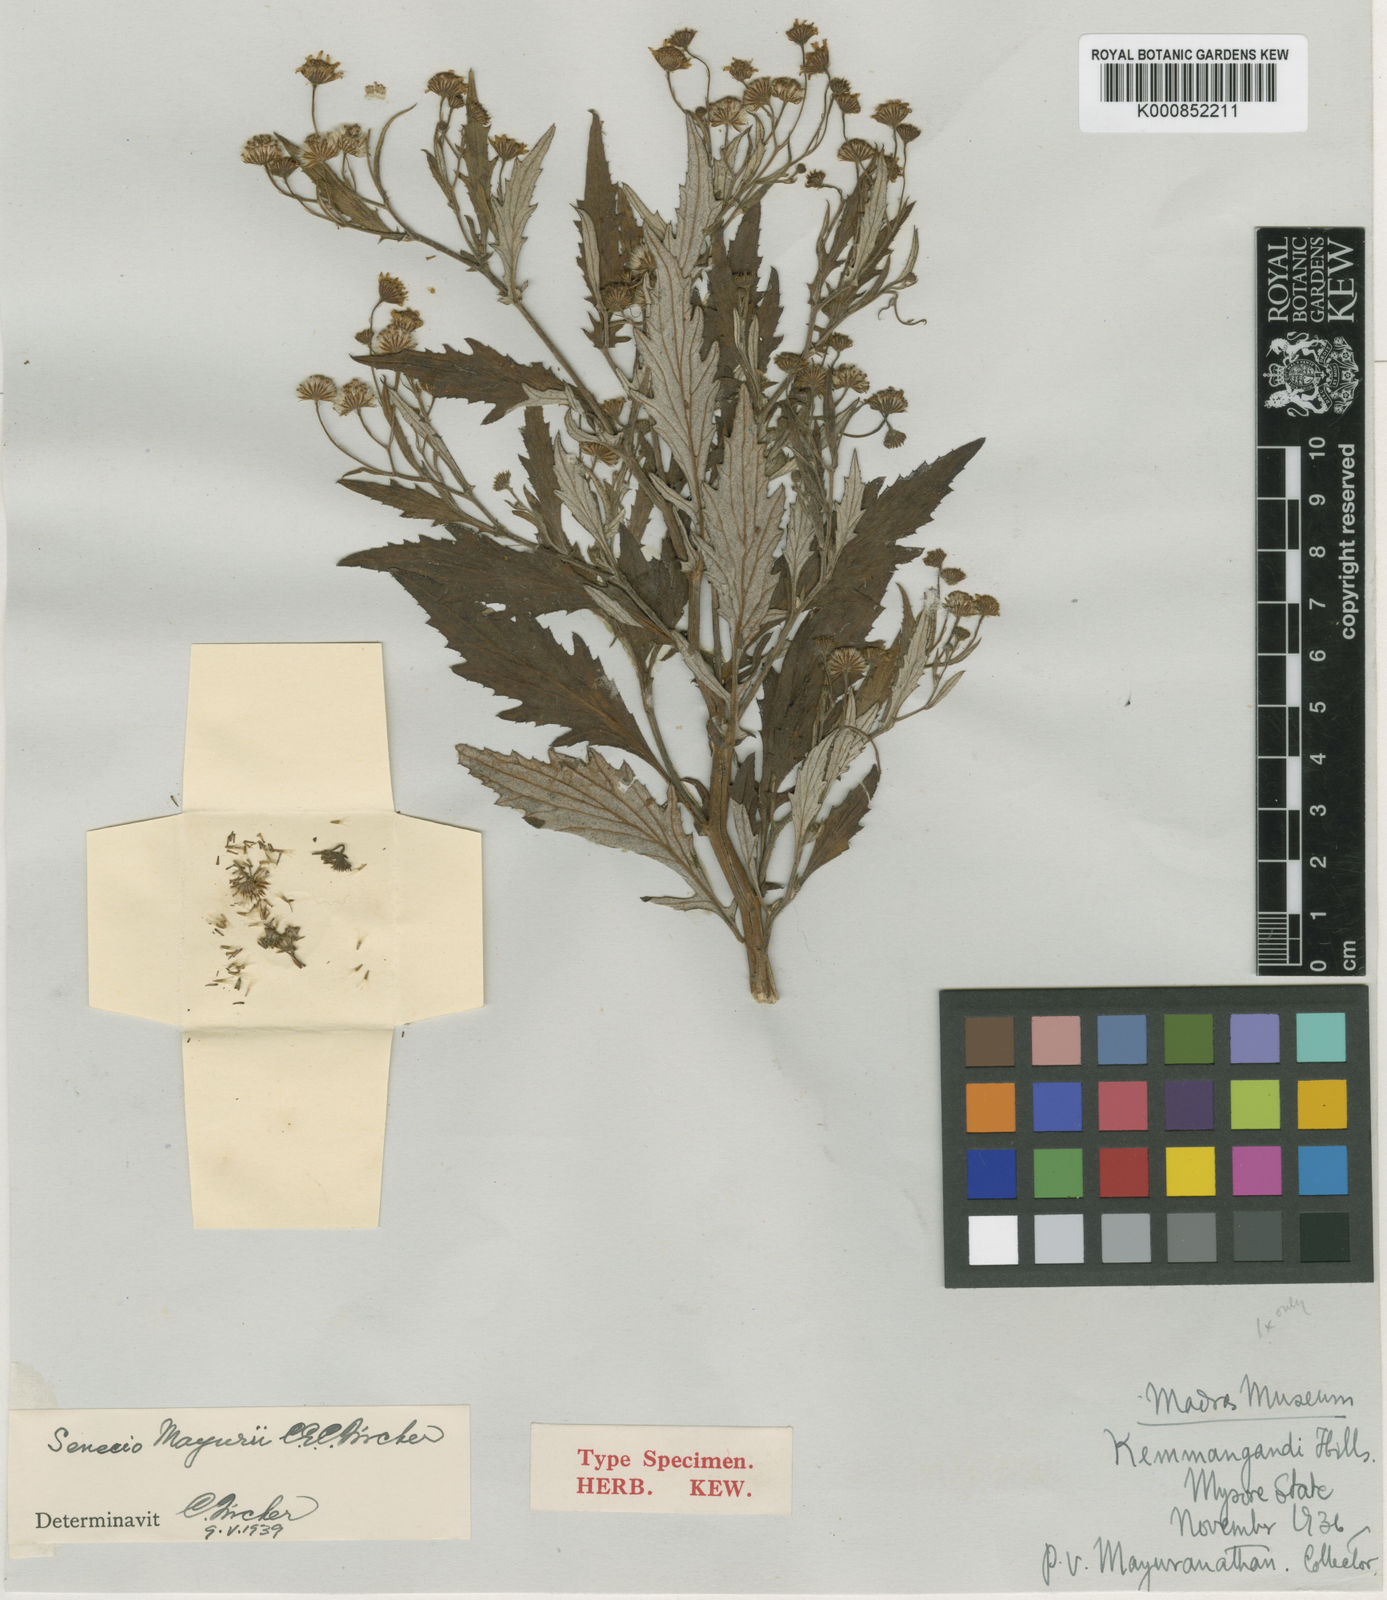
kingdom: Plantae
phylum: Tracheophyta
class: Magnoliopsida
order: Asterales
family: Asteraceae
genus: Senecio
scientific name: Senecio mayurii
